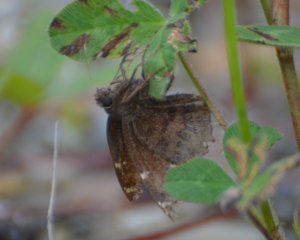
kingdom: Animalia
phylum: Arthropoda
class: Insecta
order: Lepidoptera
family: Hesperiidae
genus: Autochton
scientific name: Autochton
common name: Northern Cloudywing
